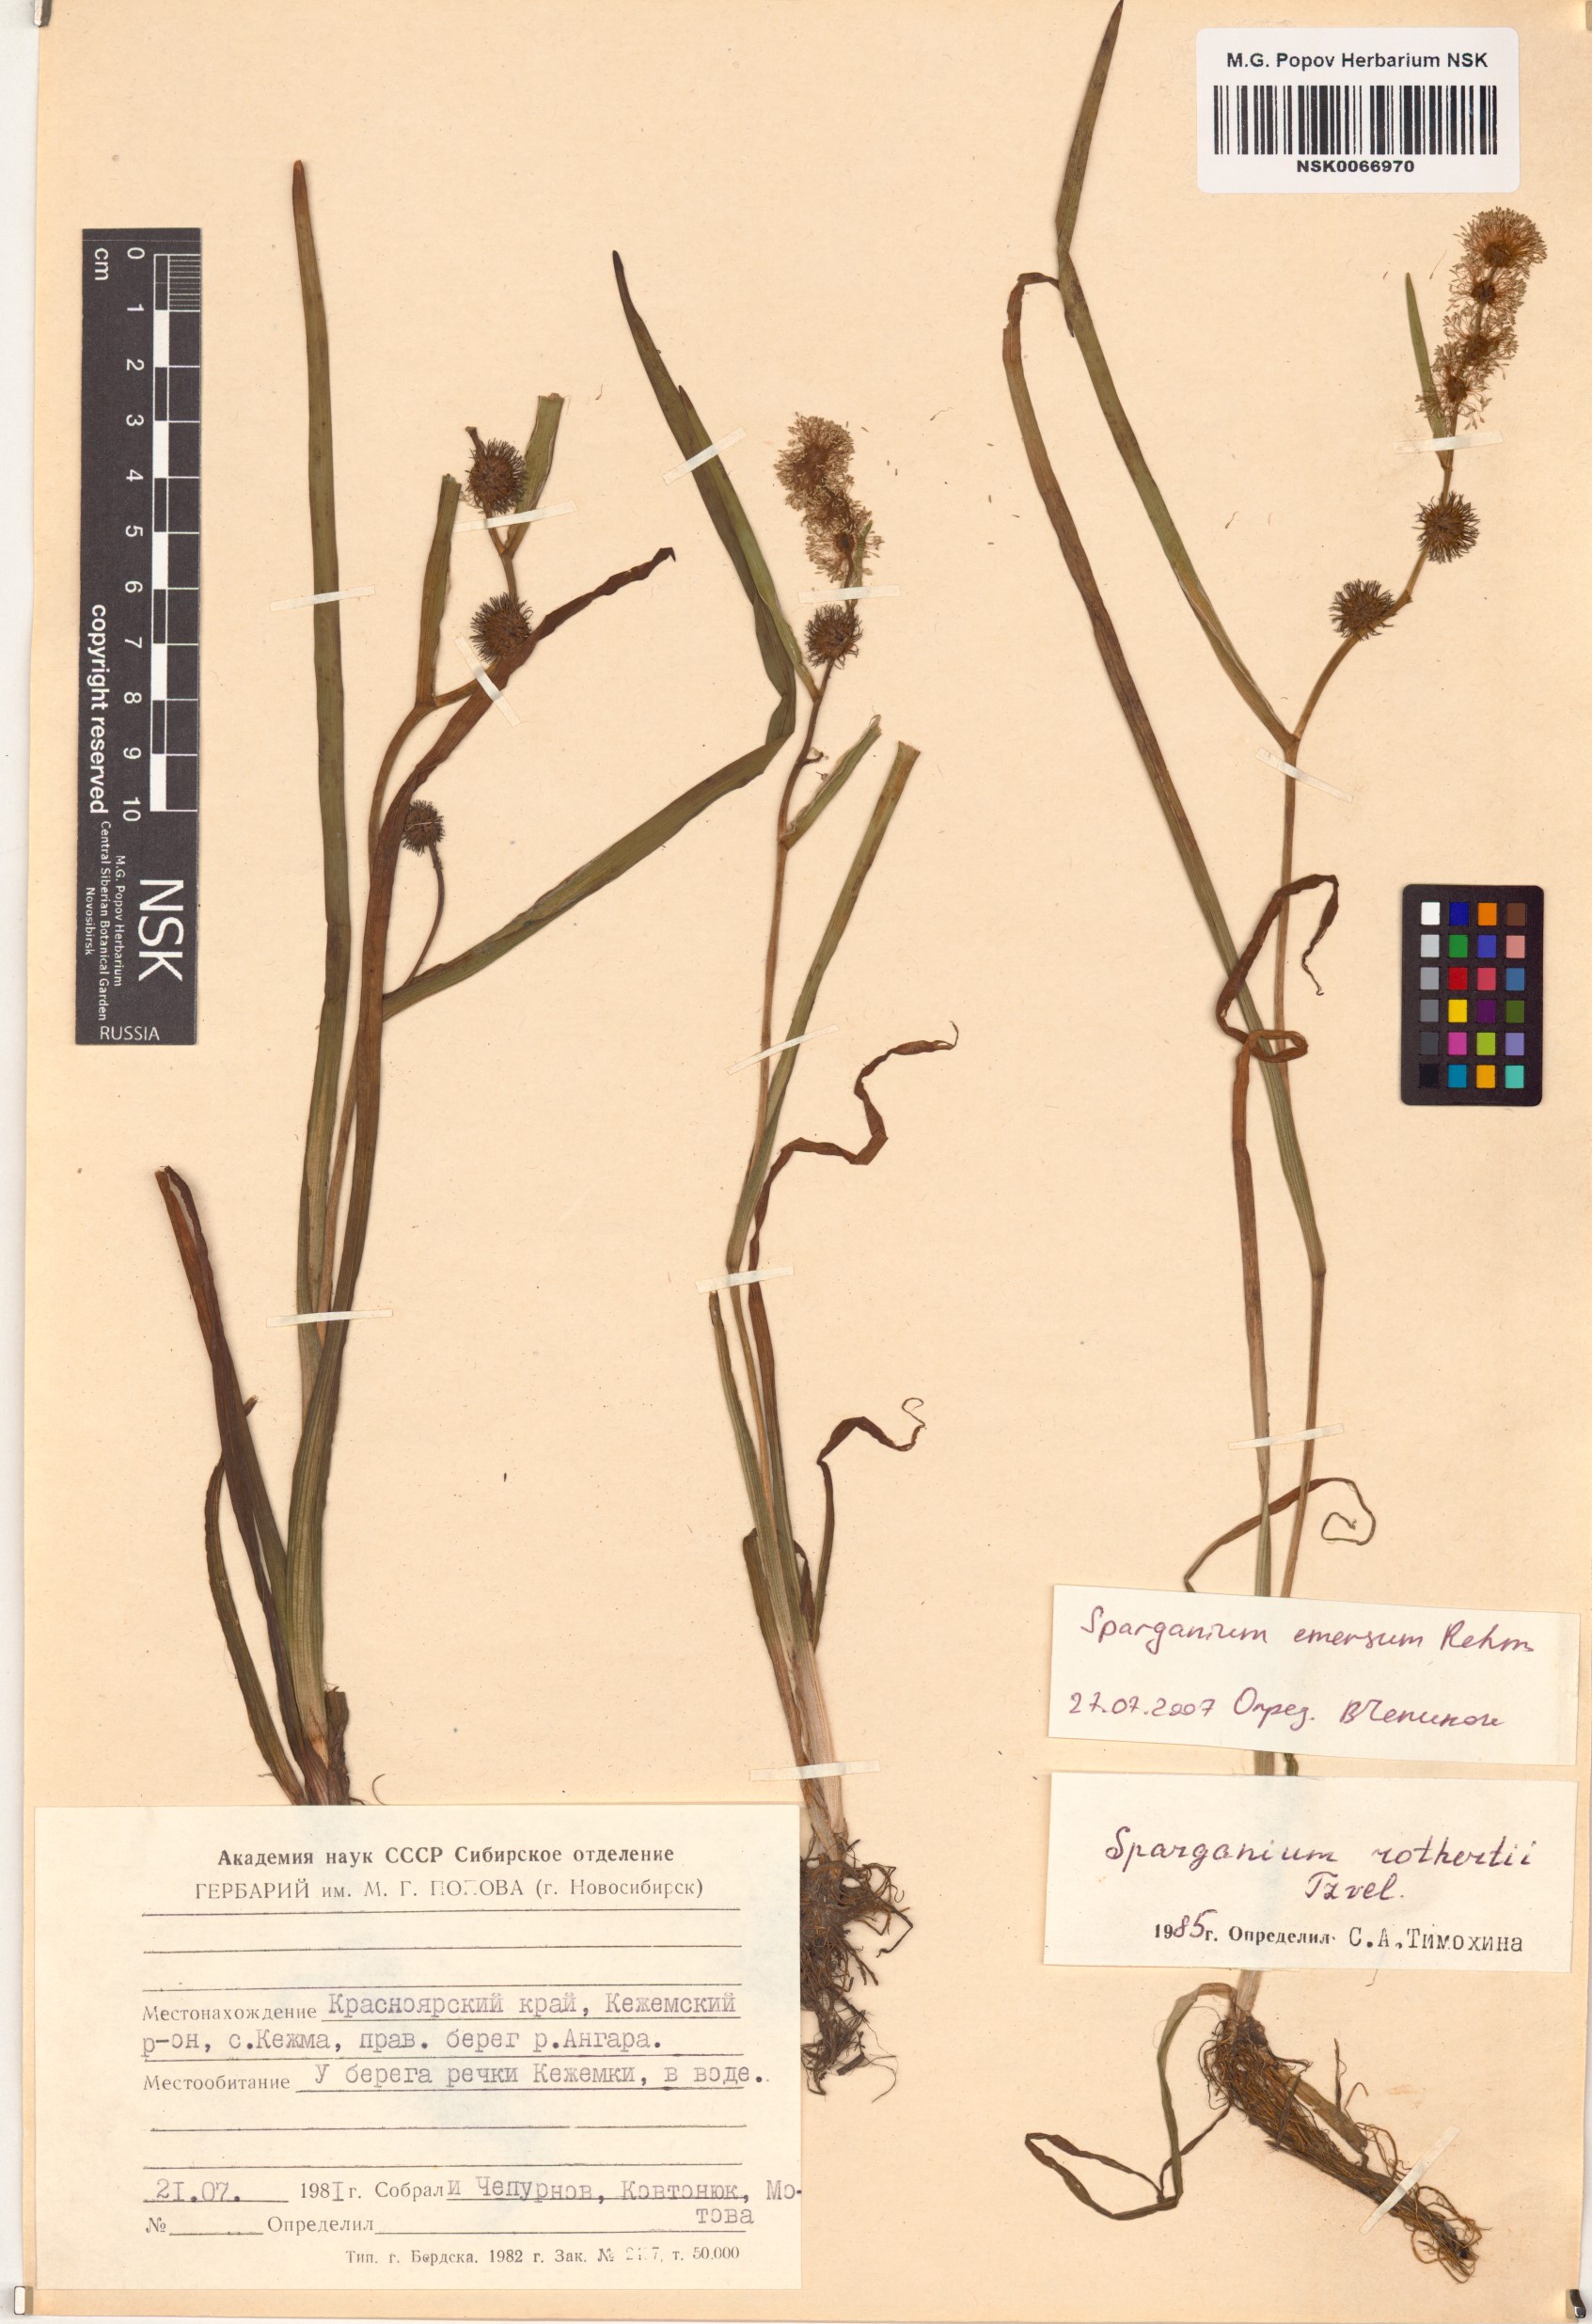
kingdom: Plantae
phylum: Tracheophyta
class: Liliopsida
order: Poales
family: Typhaceae
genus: Sparganium
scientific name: Sparganium emersum
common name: Unbranched bur-reed
